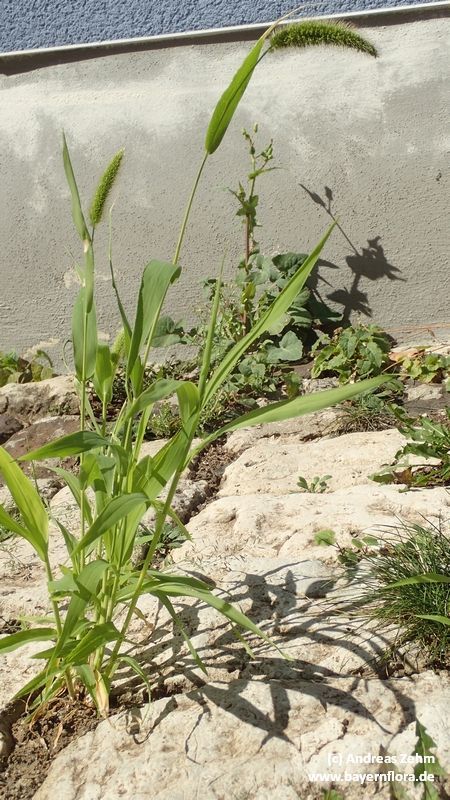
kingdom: Plantae
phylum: Tracheophyta
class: Liliopsida
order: Poales
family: Poaceae
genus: Setaria
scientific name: Setaria italica
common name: Foxtail bristle-grass
